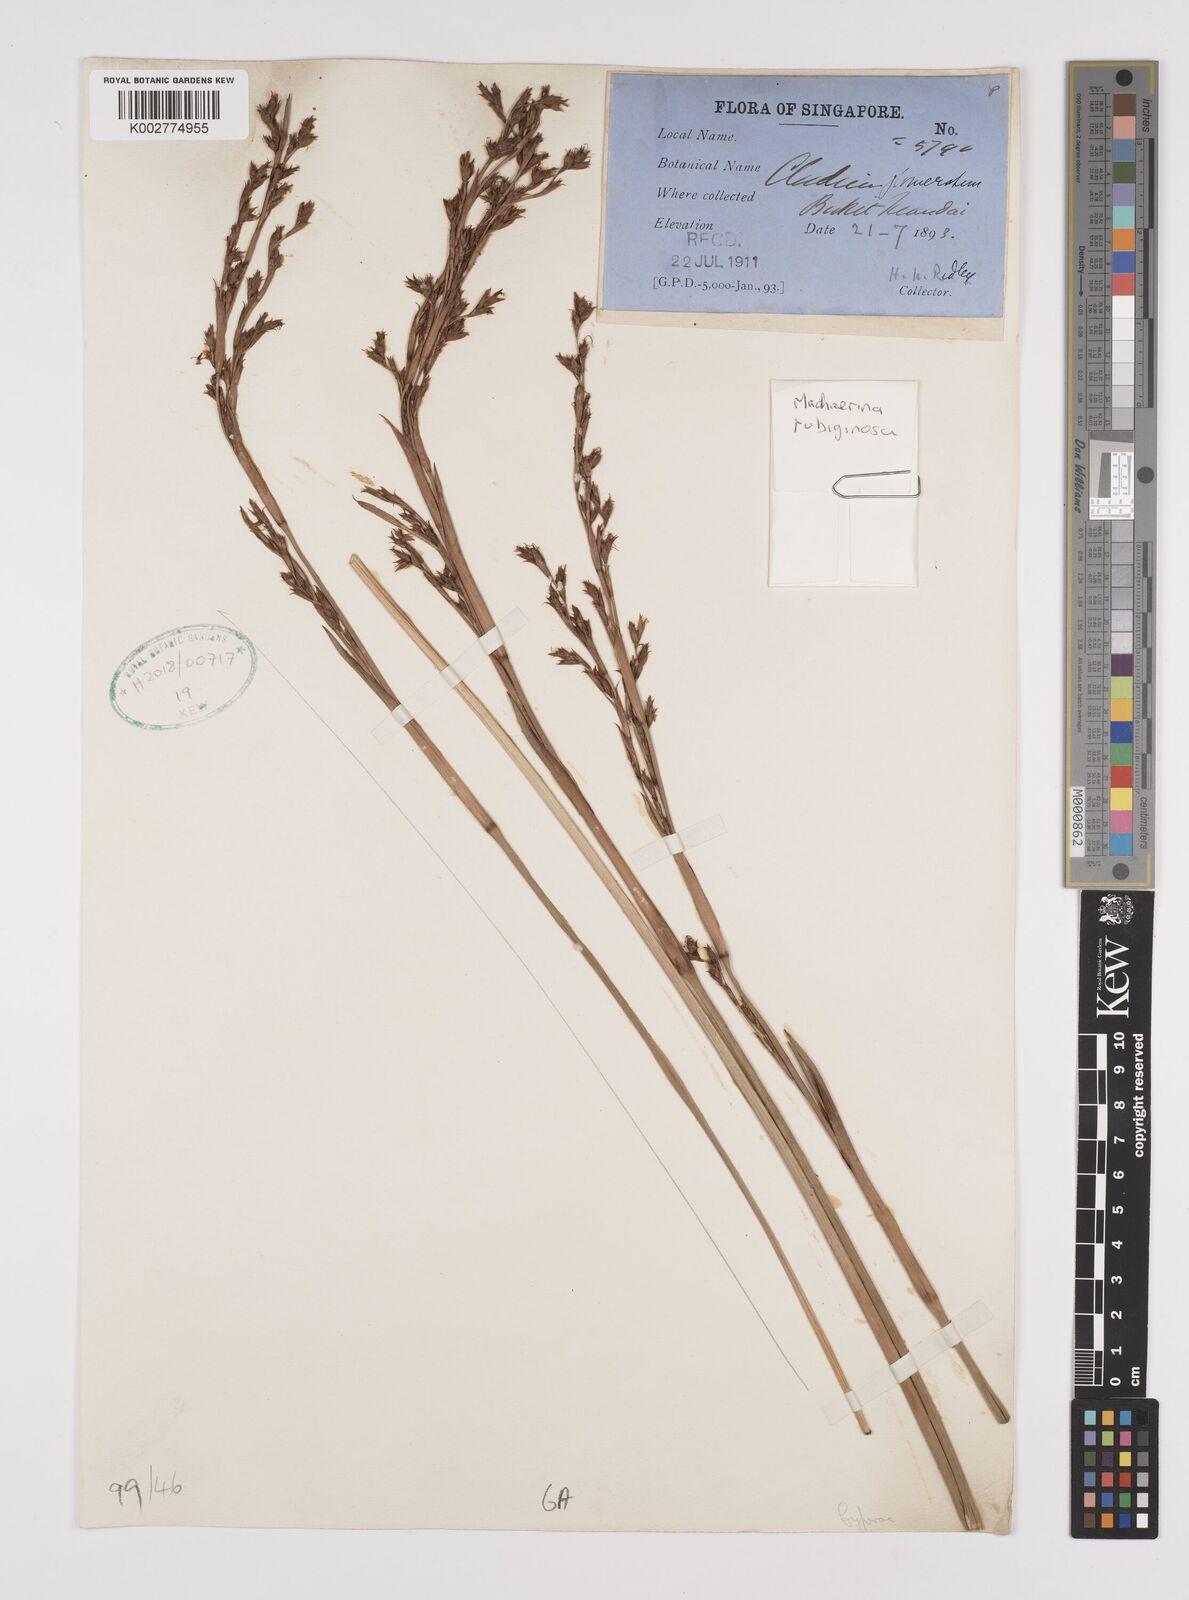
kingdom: Plantae
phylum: Tracheophyta
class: Liliopsida
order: Poales
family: Cyperaceae
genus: Machaerina
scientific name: Machaerina rubiginosa
